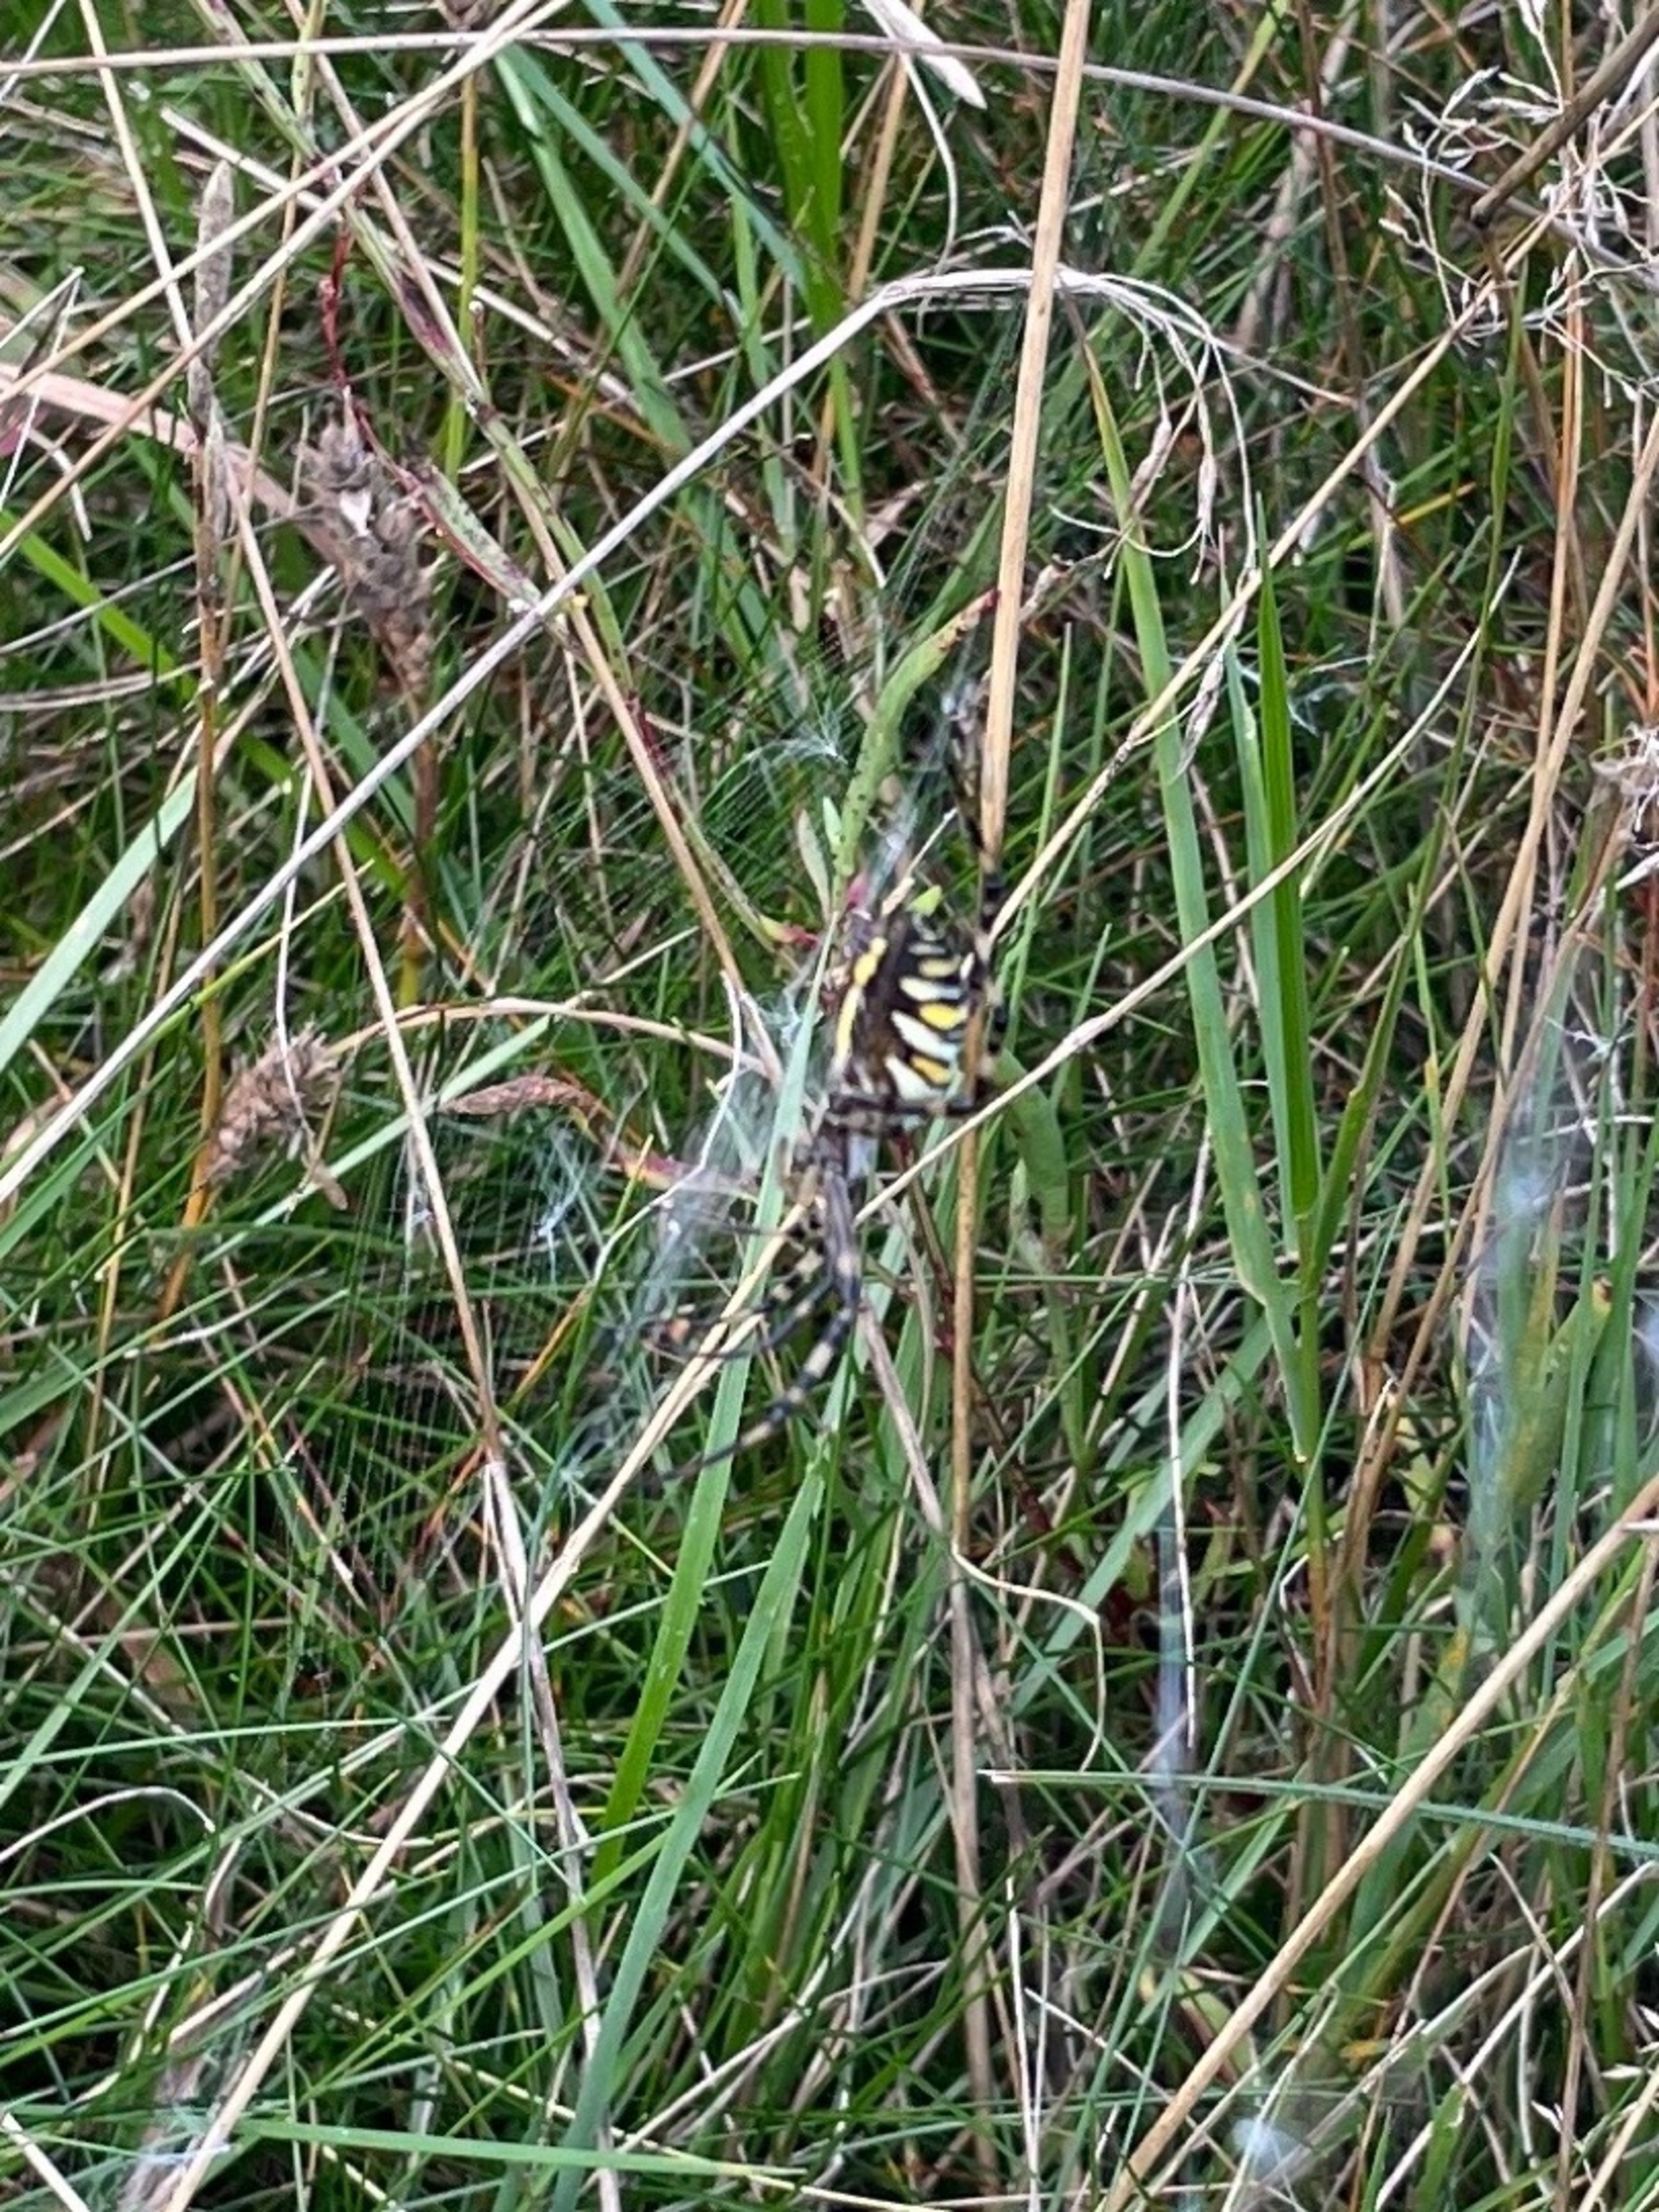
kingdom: Animalia
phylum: Arthropoda
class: Arachnida
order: Araneae
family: Araneidae
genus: Argiope
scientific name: Argiope bruennichi
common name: Hvepseedderkop
